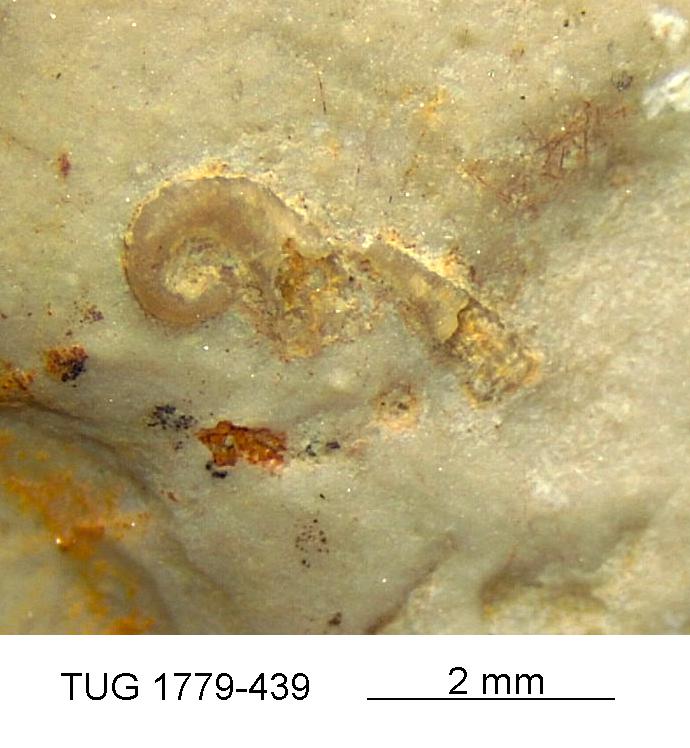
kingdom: Animalia
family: Cornulitidae
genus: Cornulites
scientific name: Cornulites
